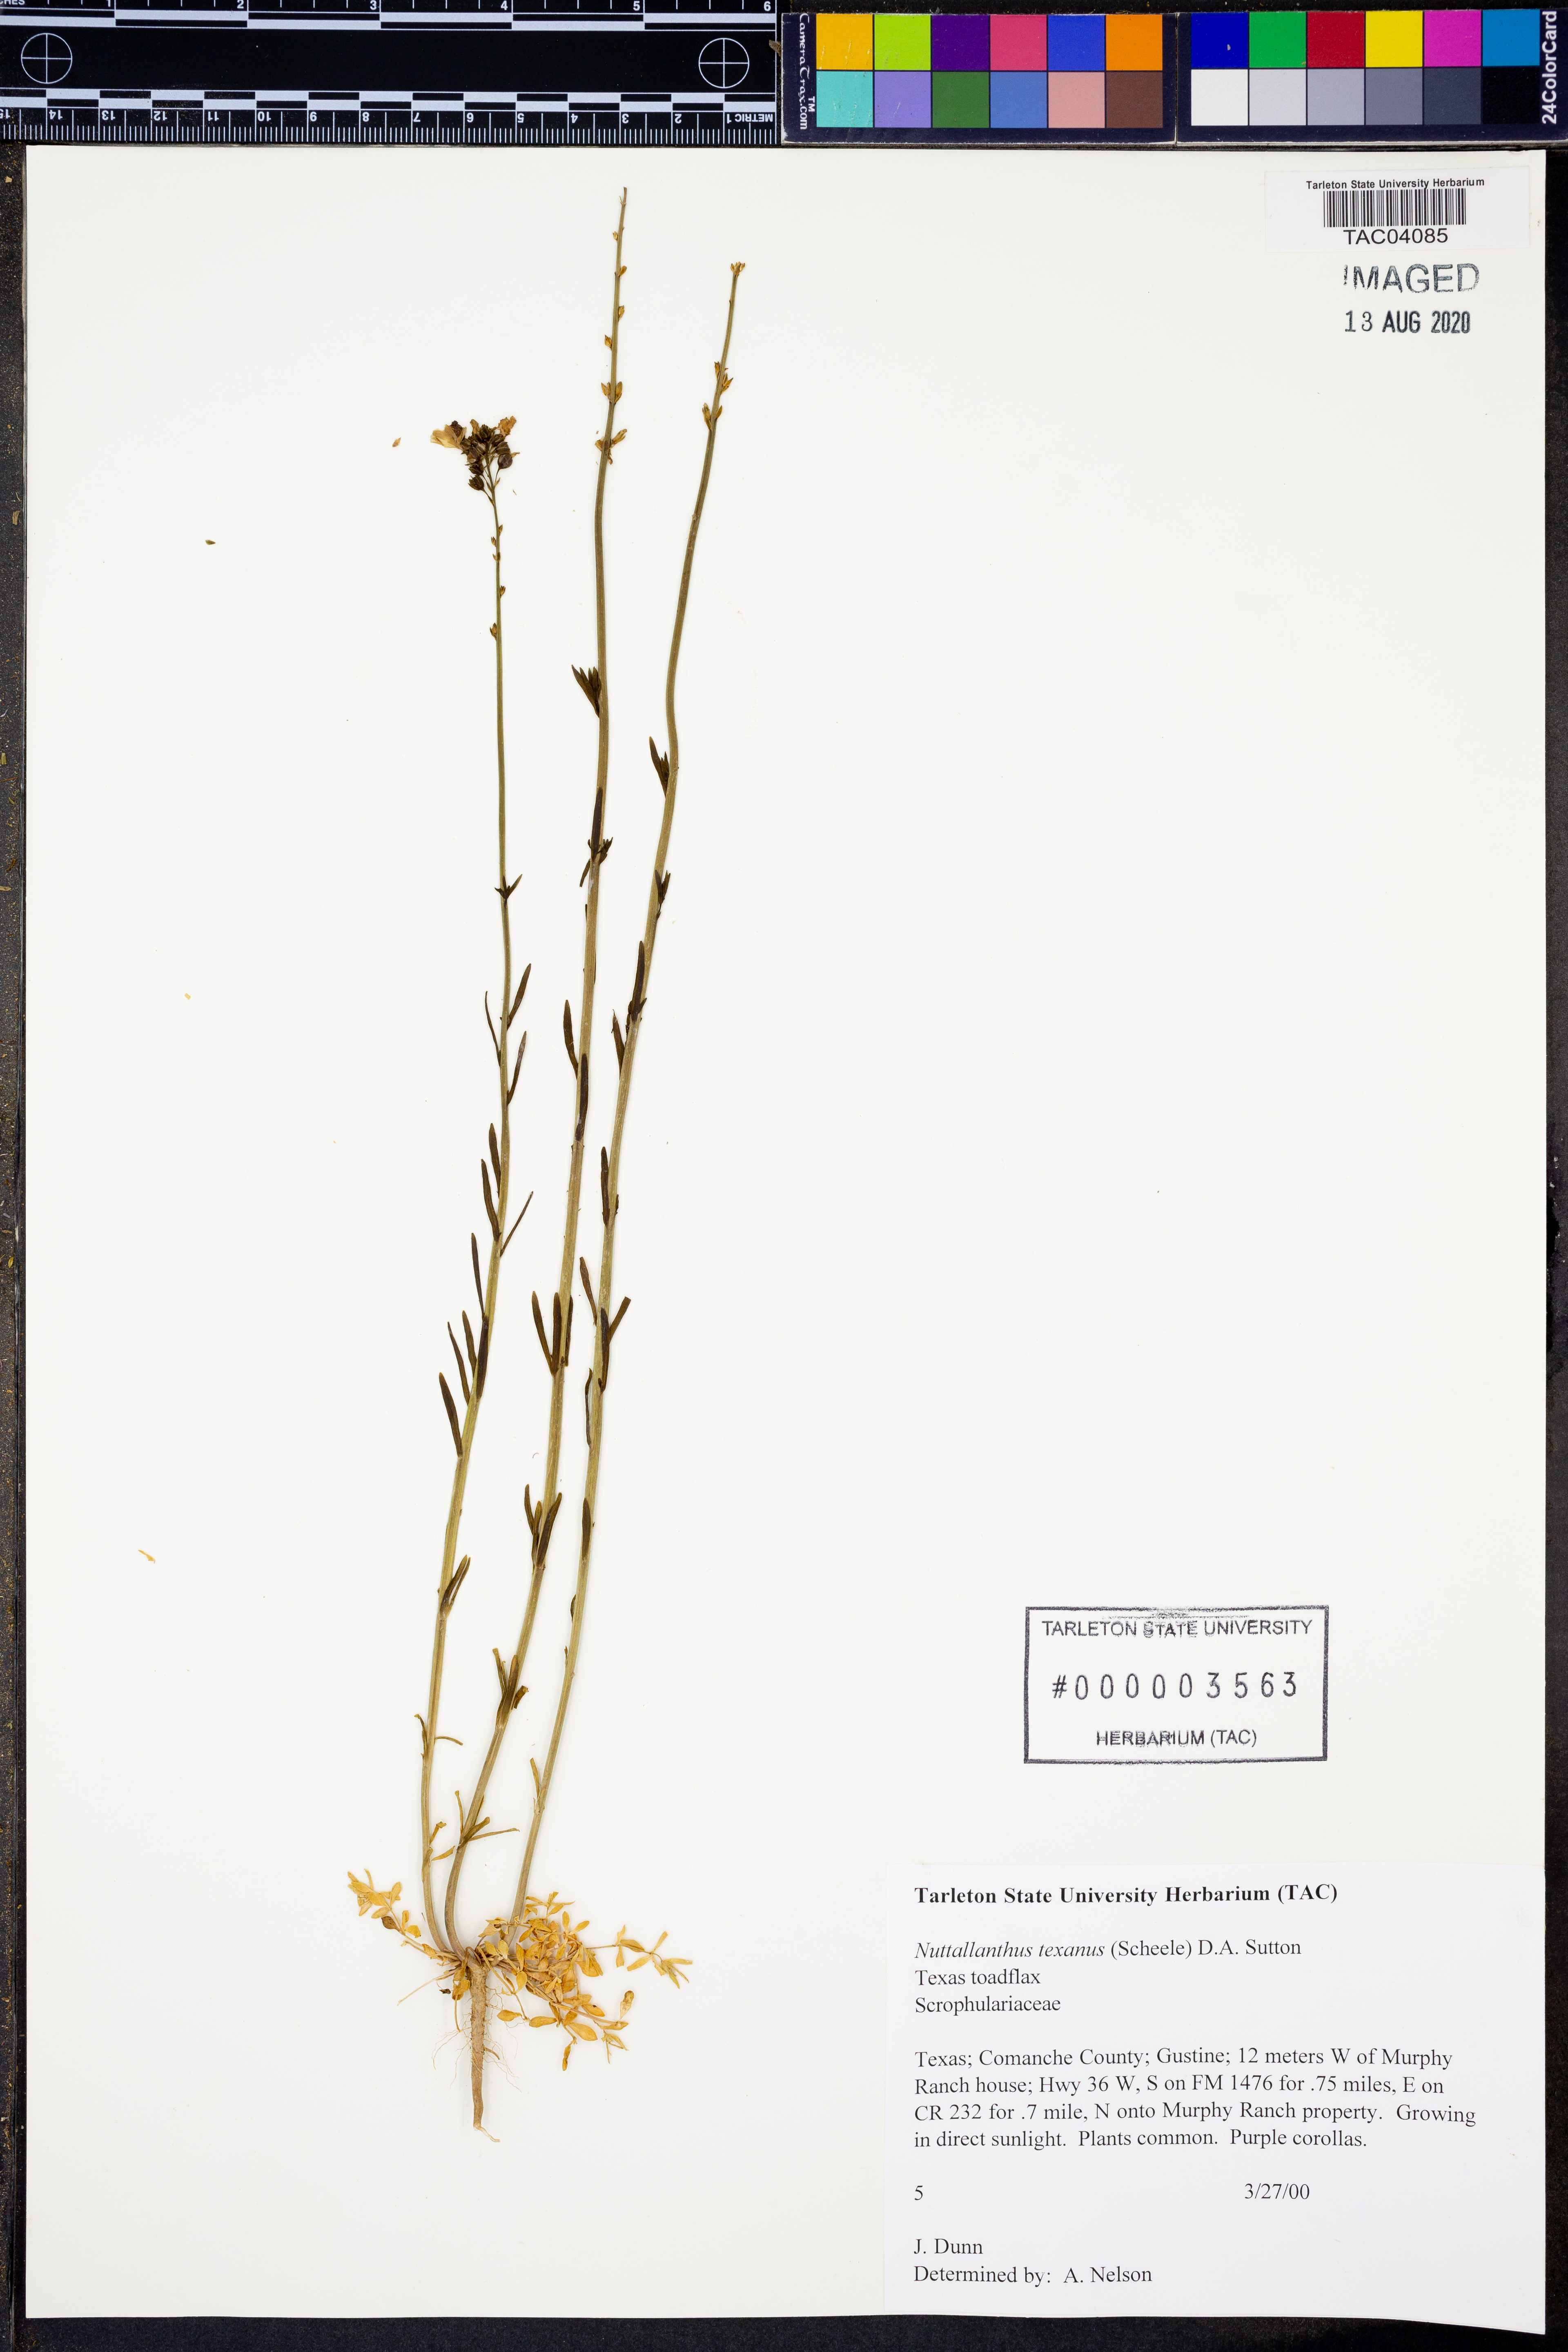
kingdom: Plantae
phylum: Tracheophyta
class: Magnoliopsida
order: Lamiales
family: Plantaginaceae
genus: Nuttallanthus
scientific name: Nuttallanthus texanus
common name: Texas toadflax
